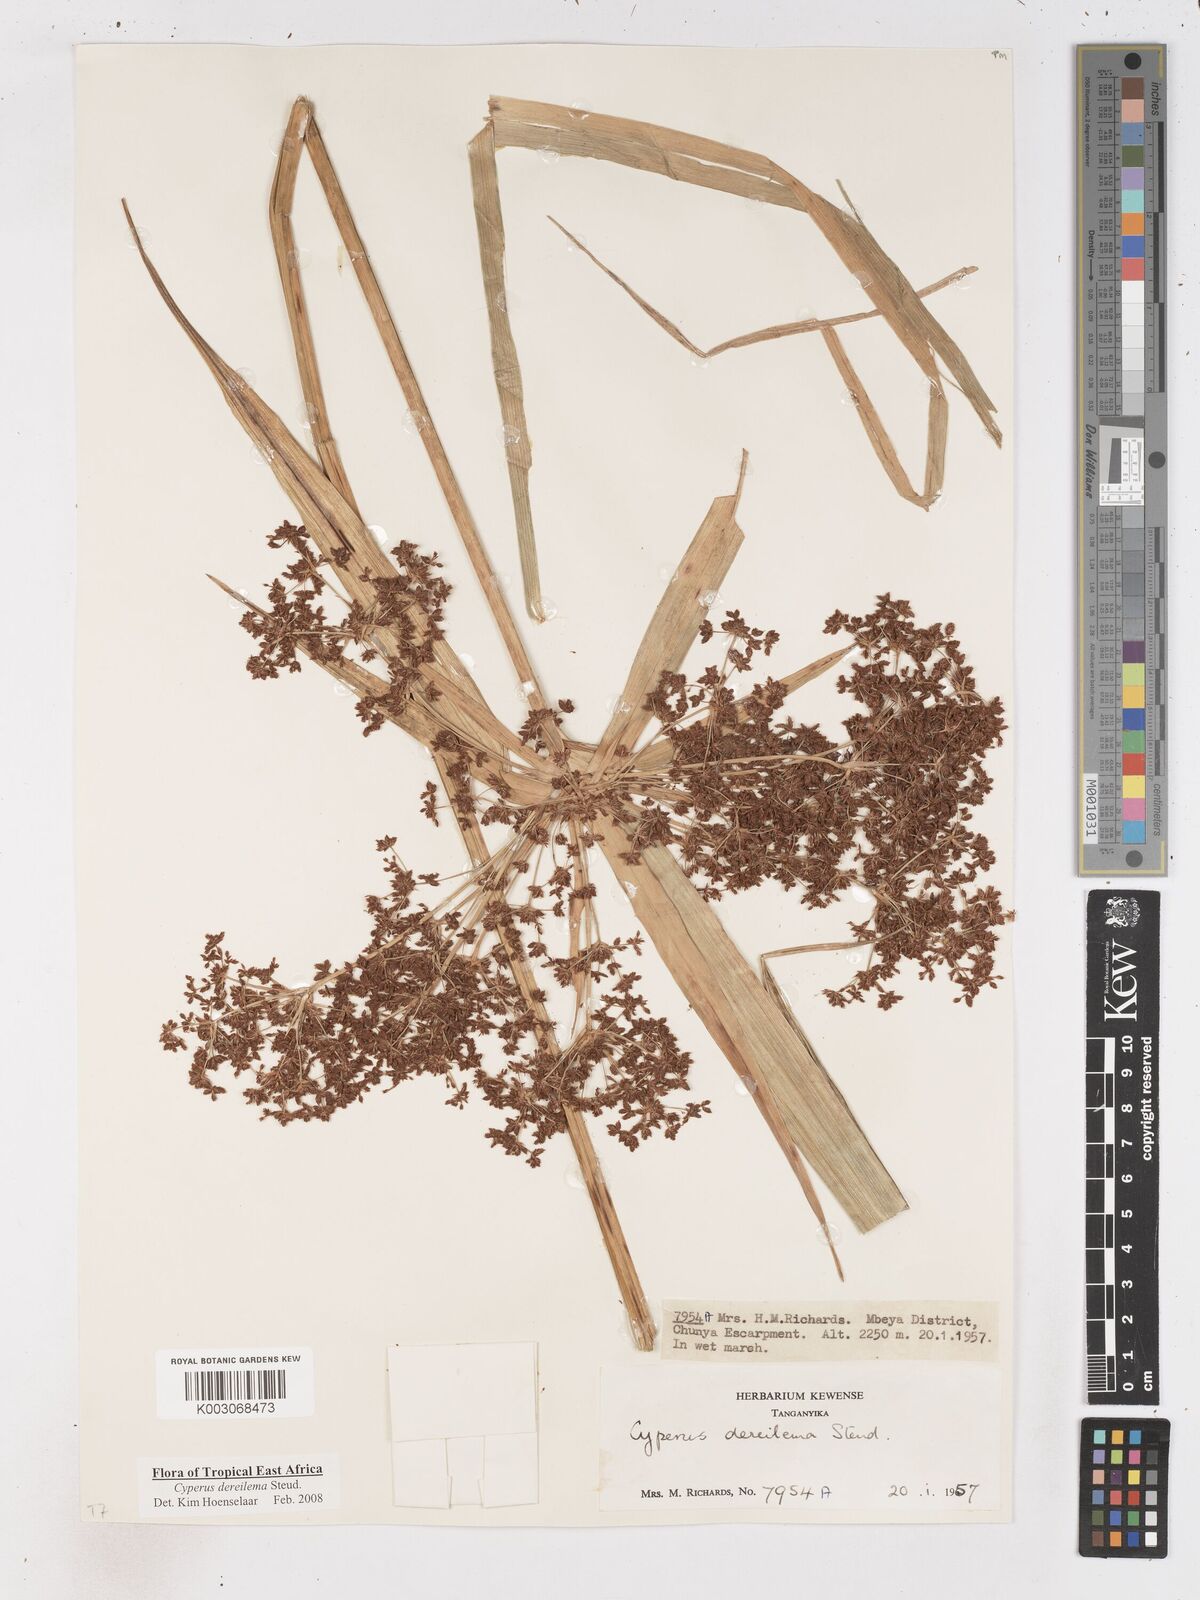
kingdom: Plantae
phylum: Tracheophyta
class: Liliopsida
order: Poales
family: Cyperaceae
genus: Cyperus
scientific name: Cyperus derreilema
